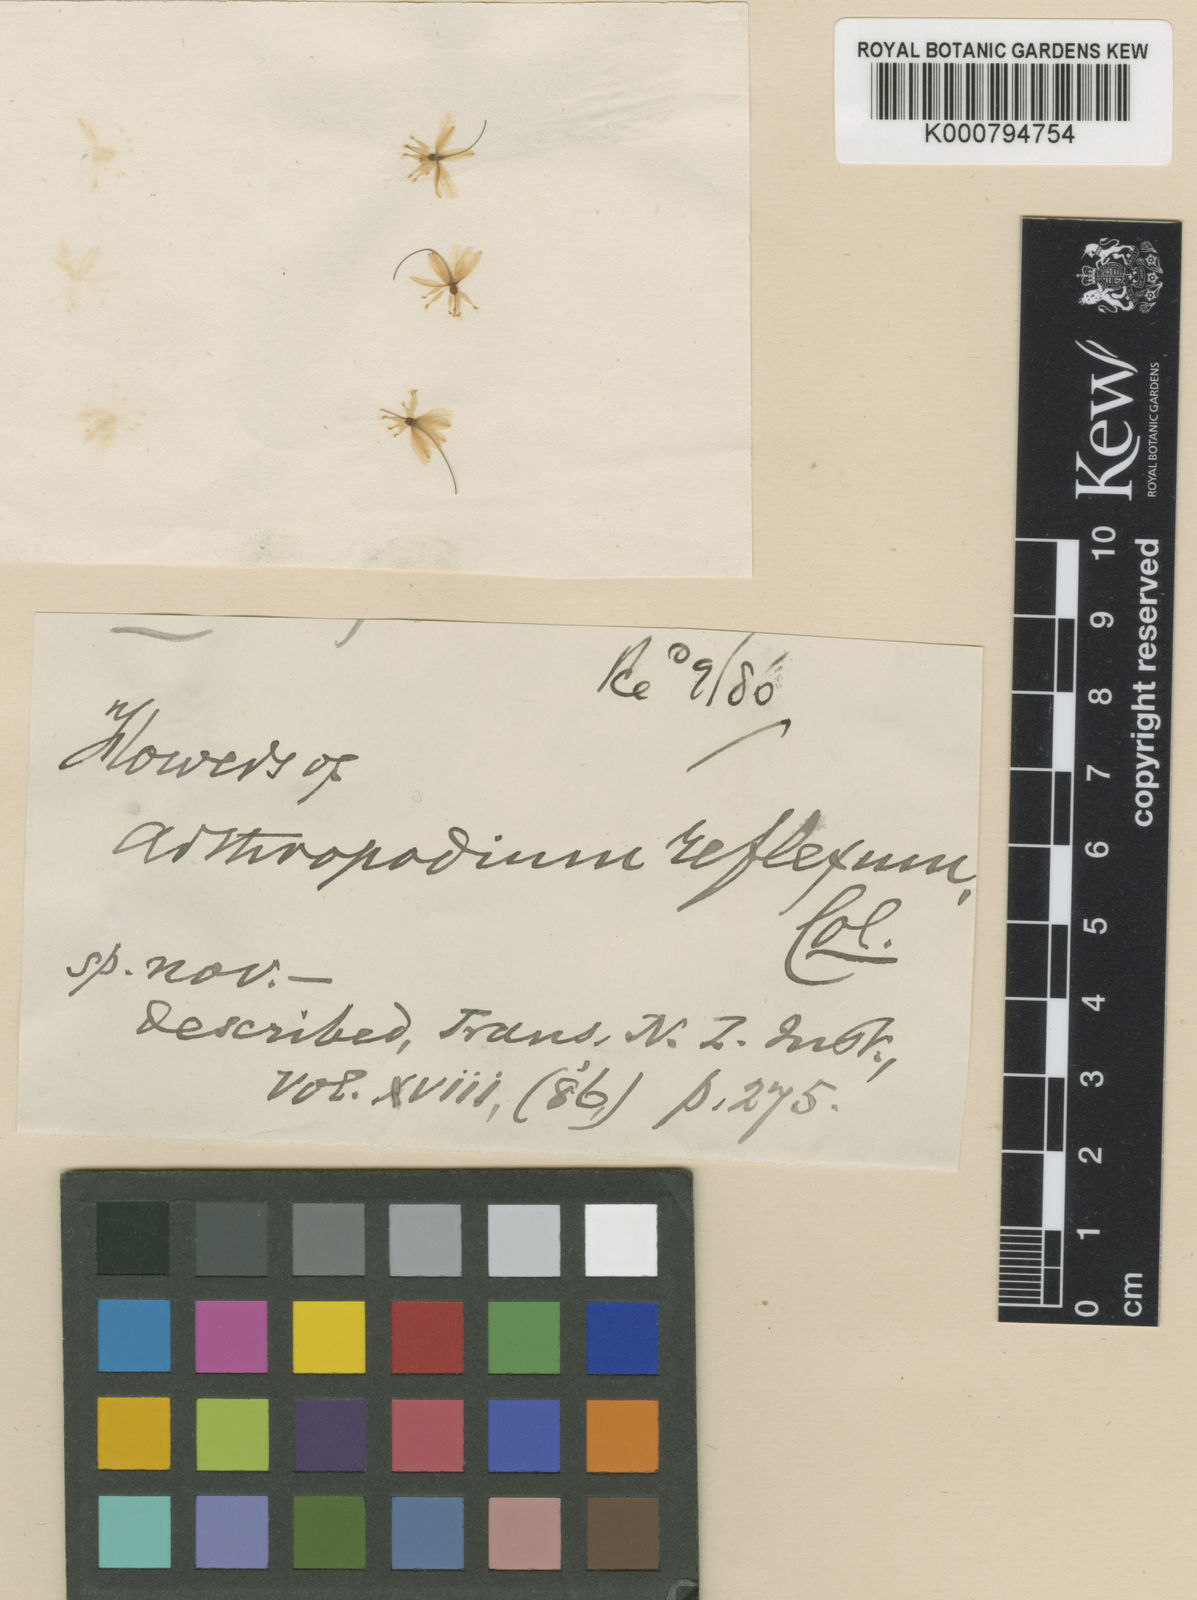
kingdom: Plantae
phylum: Tracheophyta
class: Liliopsida
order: Asparagales
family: Asparagaceae
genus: Arthropodium
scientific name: Arthropodium candidum
